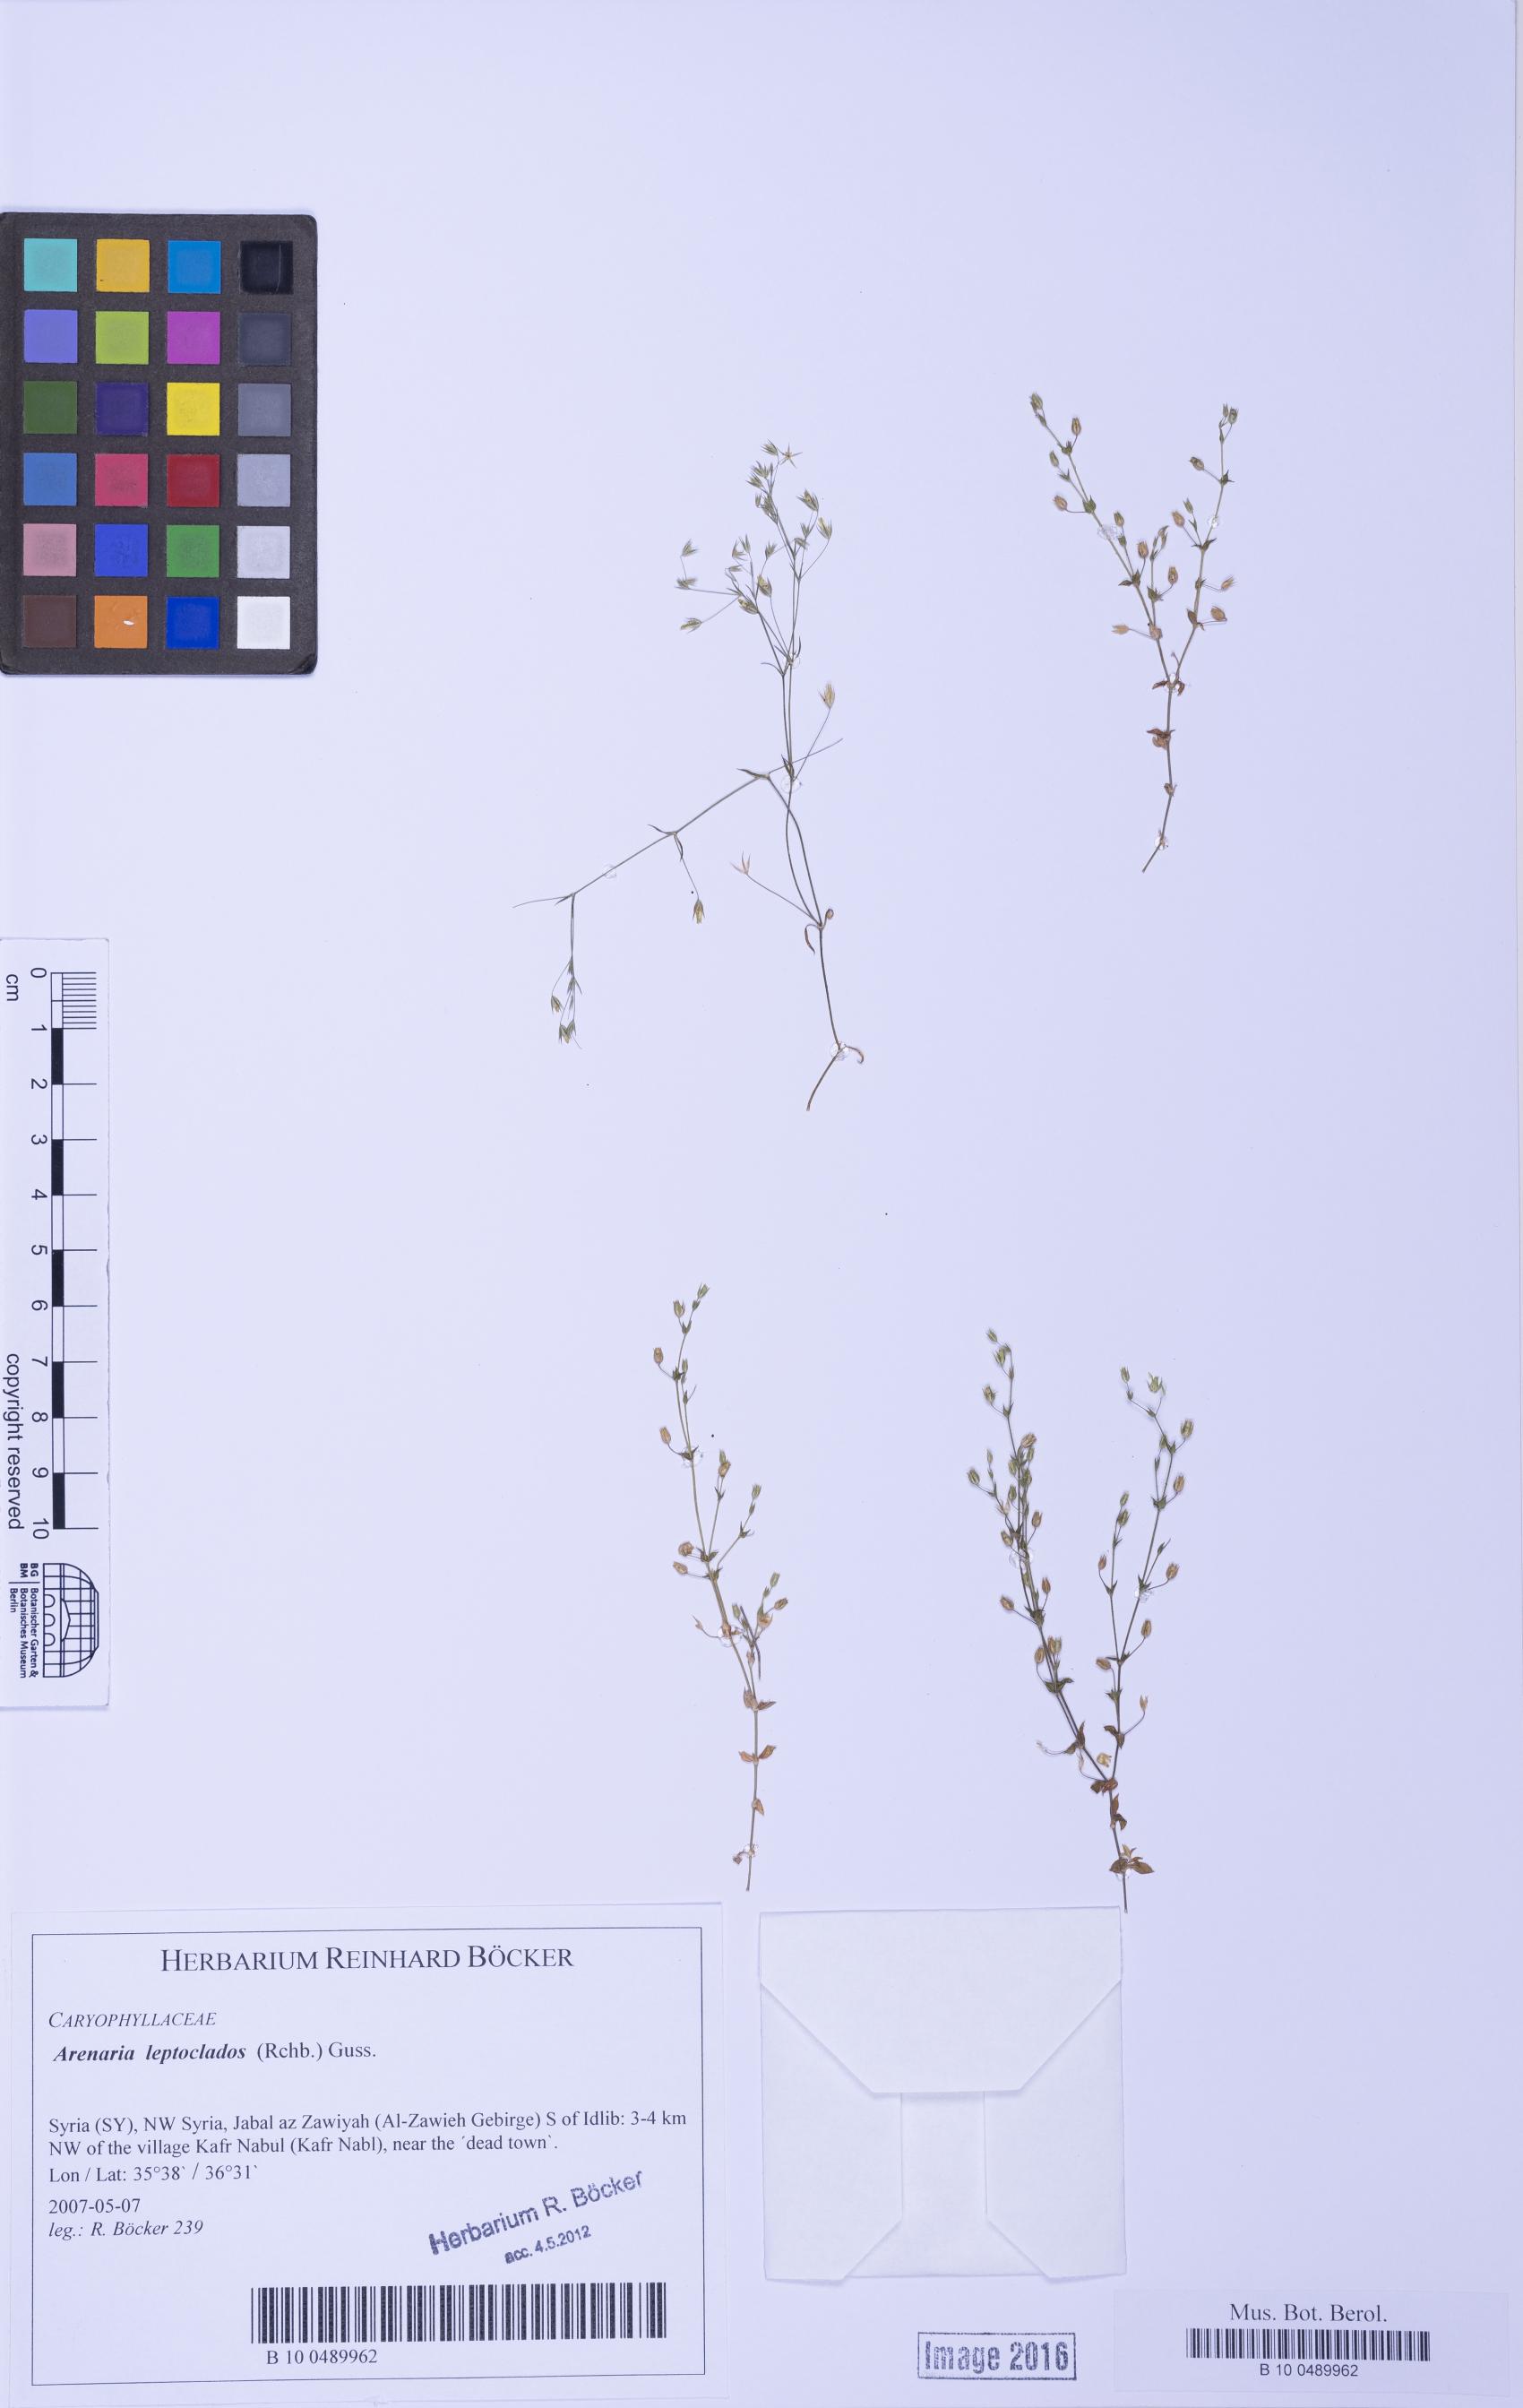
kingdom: Plantae
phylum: Tracheophyta
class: Magnoliopsida
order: Caryophyllales
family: Caryophyllaceae
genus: Arenaria
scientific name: Arenaria leptoclados
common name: Thyme-leaved sandwort
